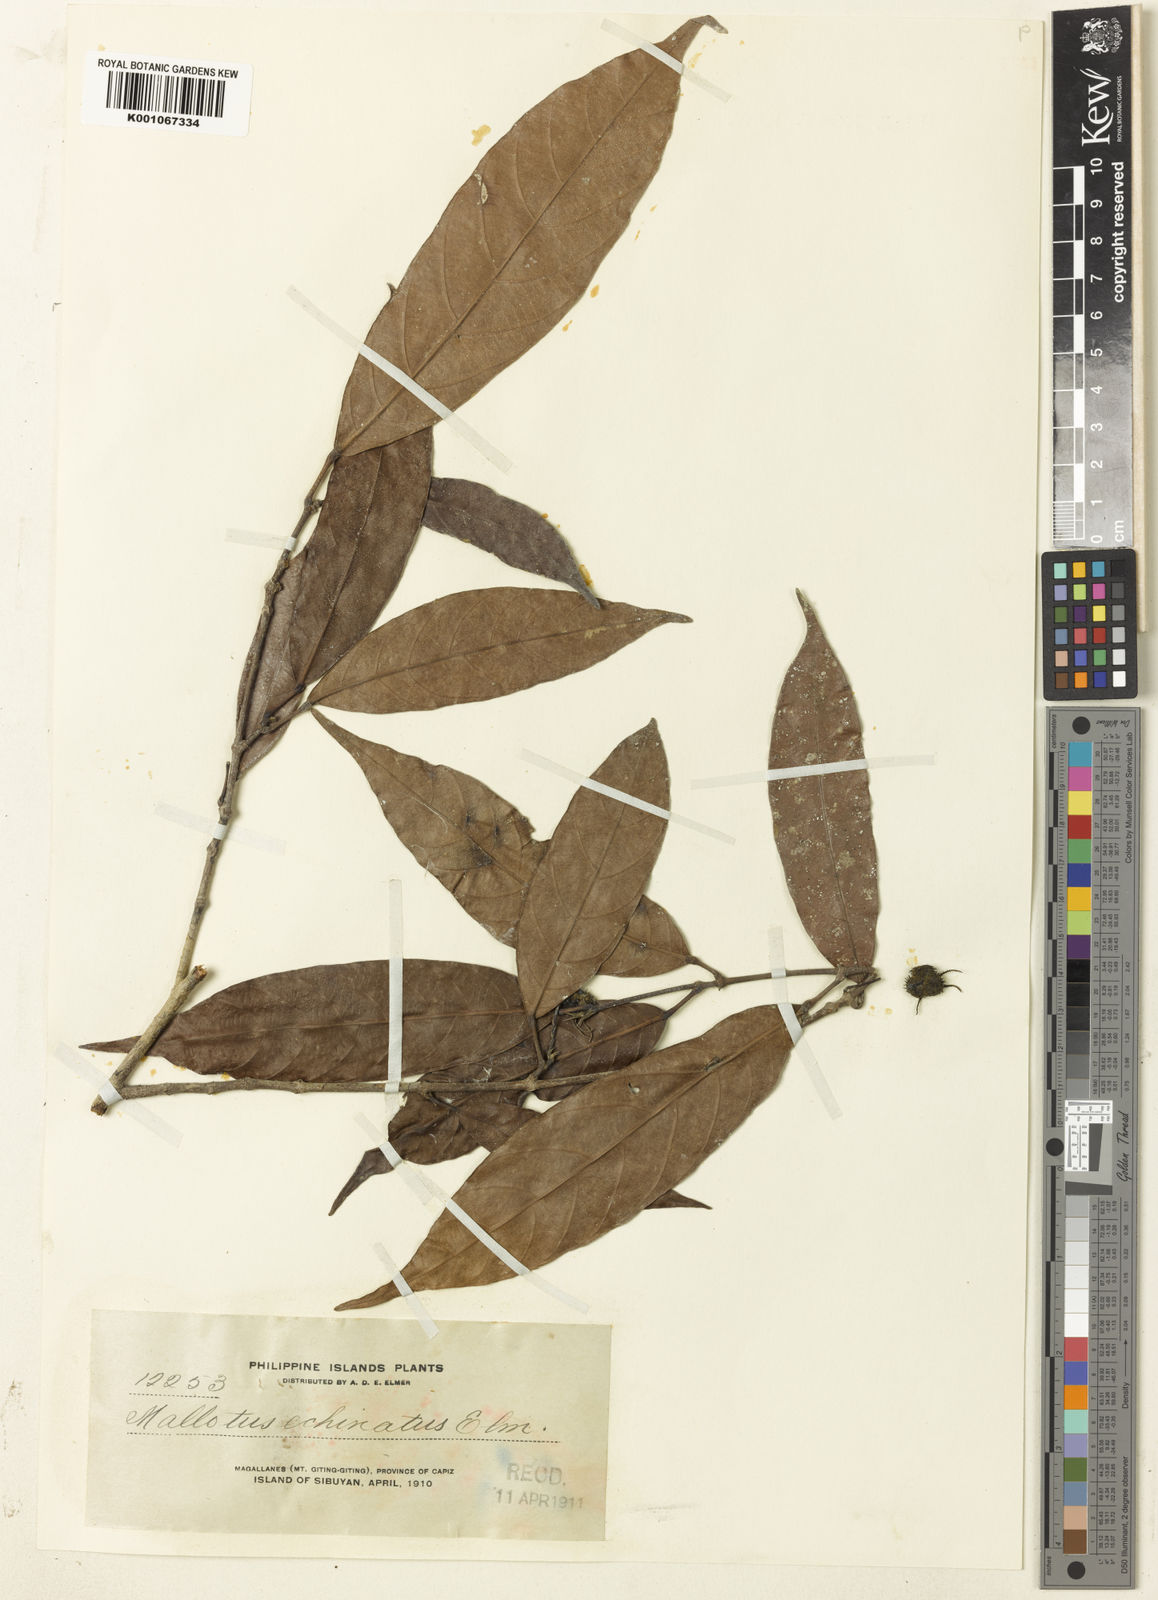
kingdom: Plantae
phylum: Tracheophyta
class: Magnoliopsida
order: Malpighiales
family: Euphorbiaceae
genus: Hancea
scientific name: Hancea penangensis
